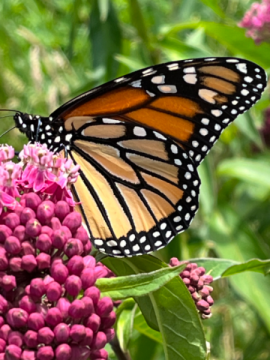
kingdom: Animalia
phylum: Arthropoda
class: Insecta
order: Lepidoptera
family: Nymphalidae
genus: Danaus
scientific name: Danaus plexippus
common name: Monarch
